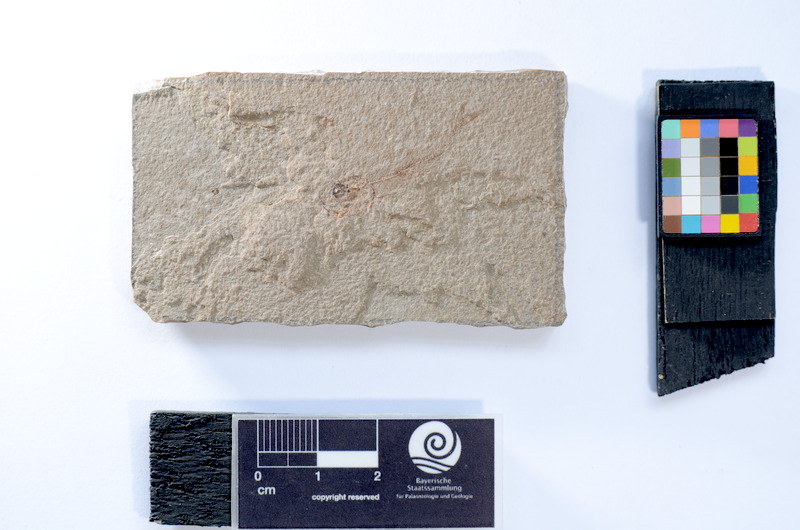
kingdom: Animalia
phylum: Chordata
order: Elopiformes
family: Anaethalionidae
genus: Anaethalion
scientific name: Anaethalion
